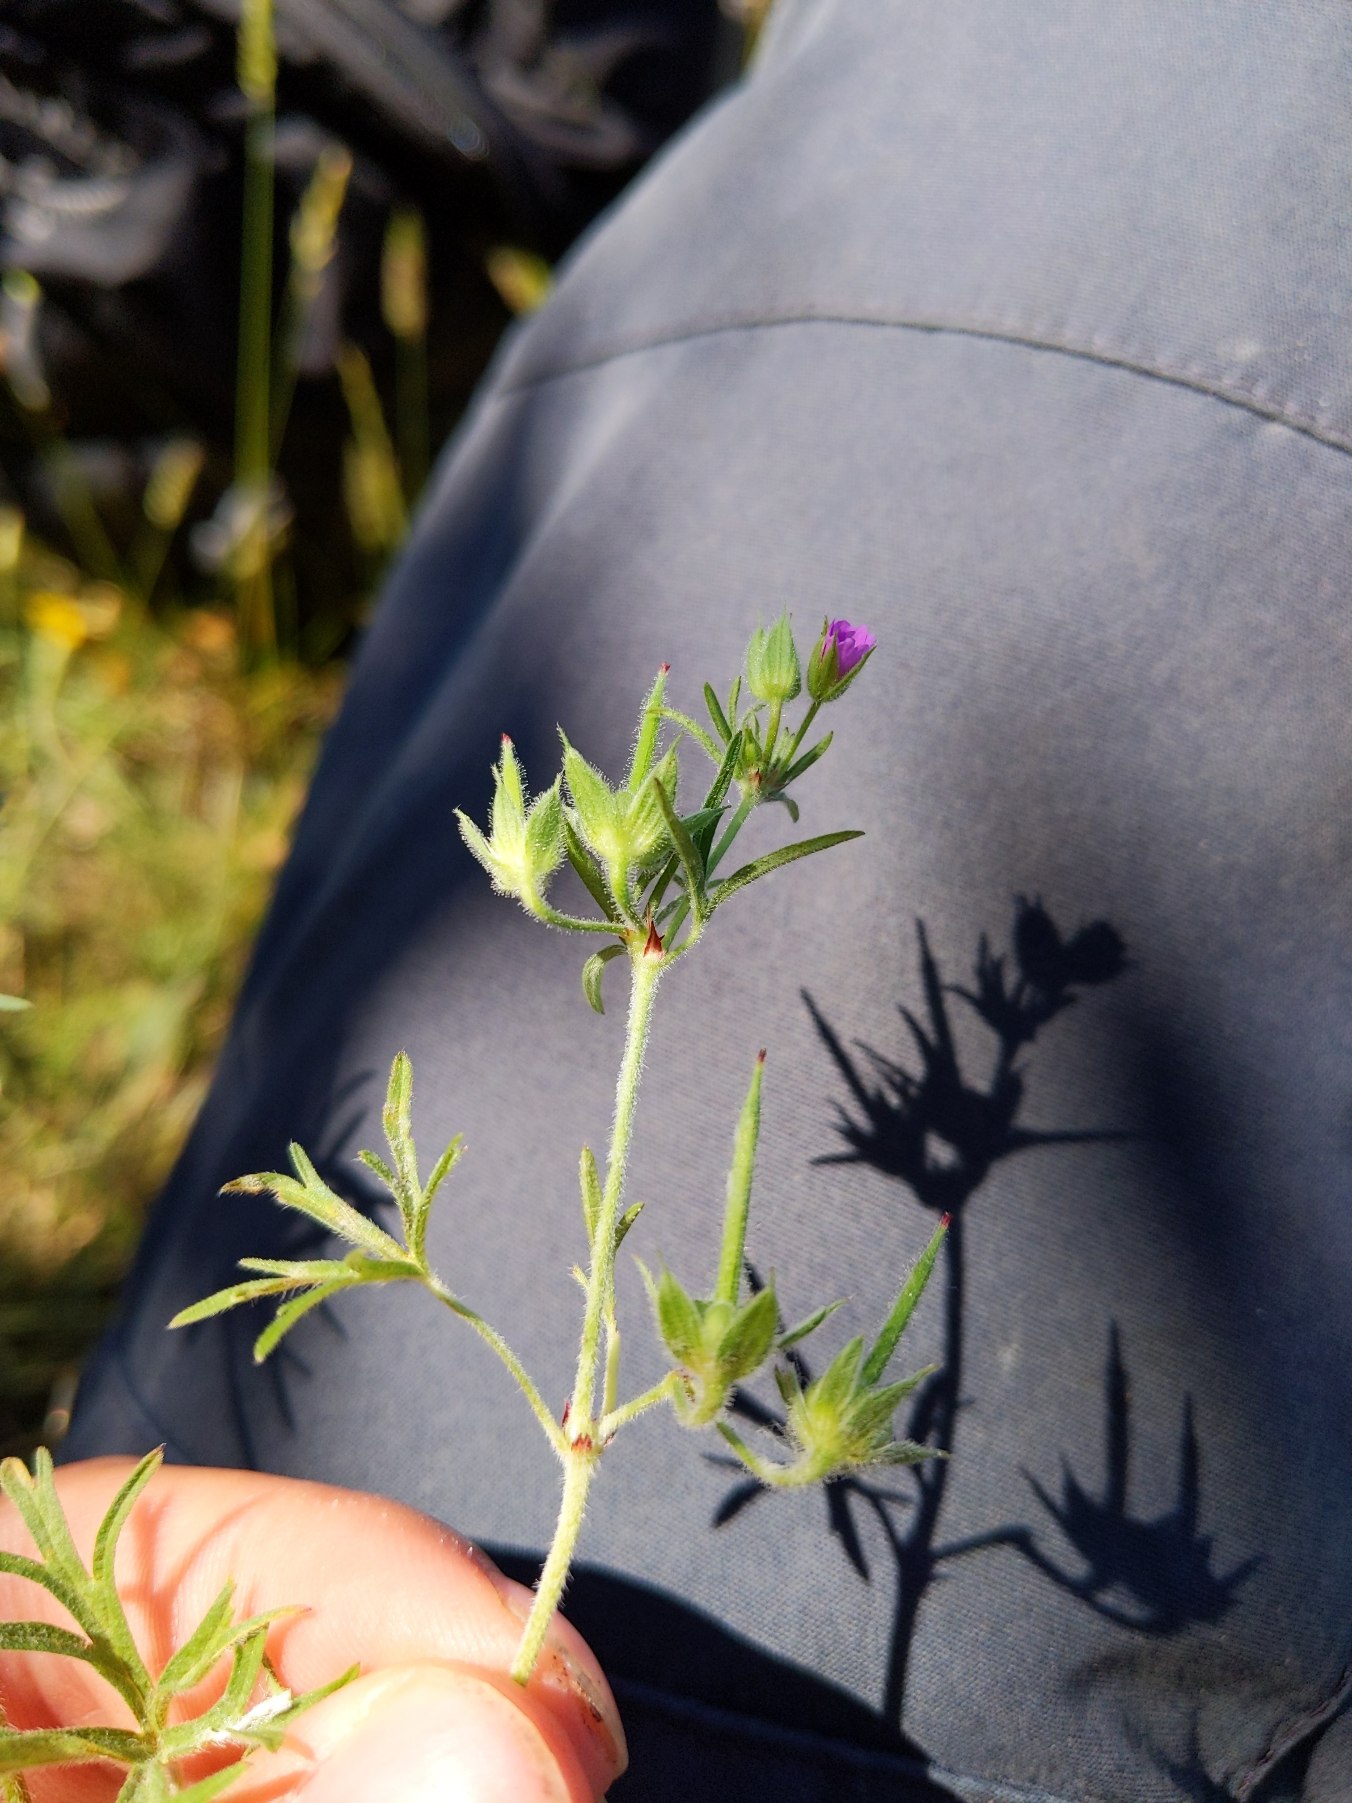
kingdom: Plantae
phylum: Tracheophyta
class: Magnoliopsida
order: Geraniales
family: Geraniaceae
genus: Geranium
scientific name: Geranium dissectum
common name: Kløftet storkenæb
